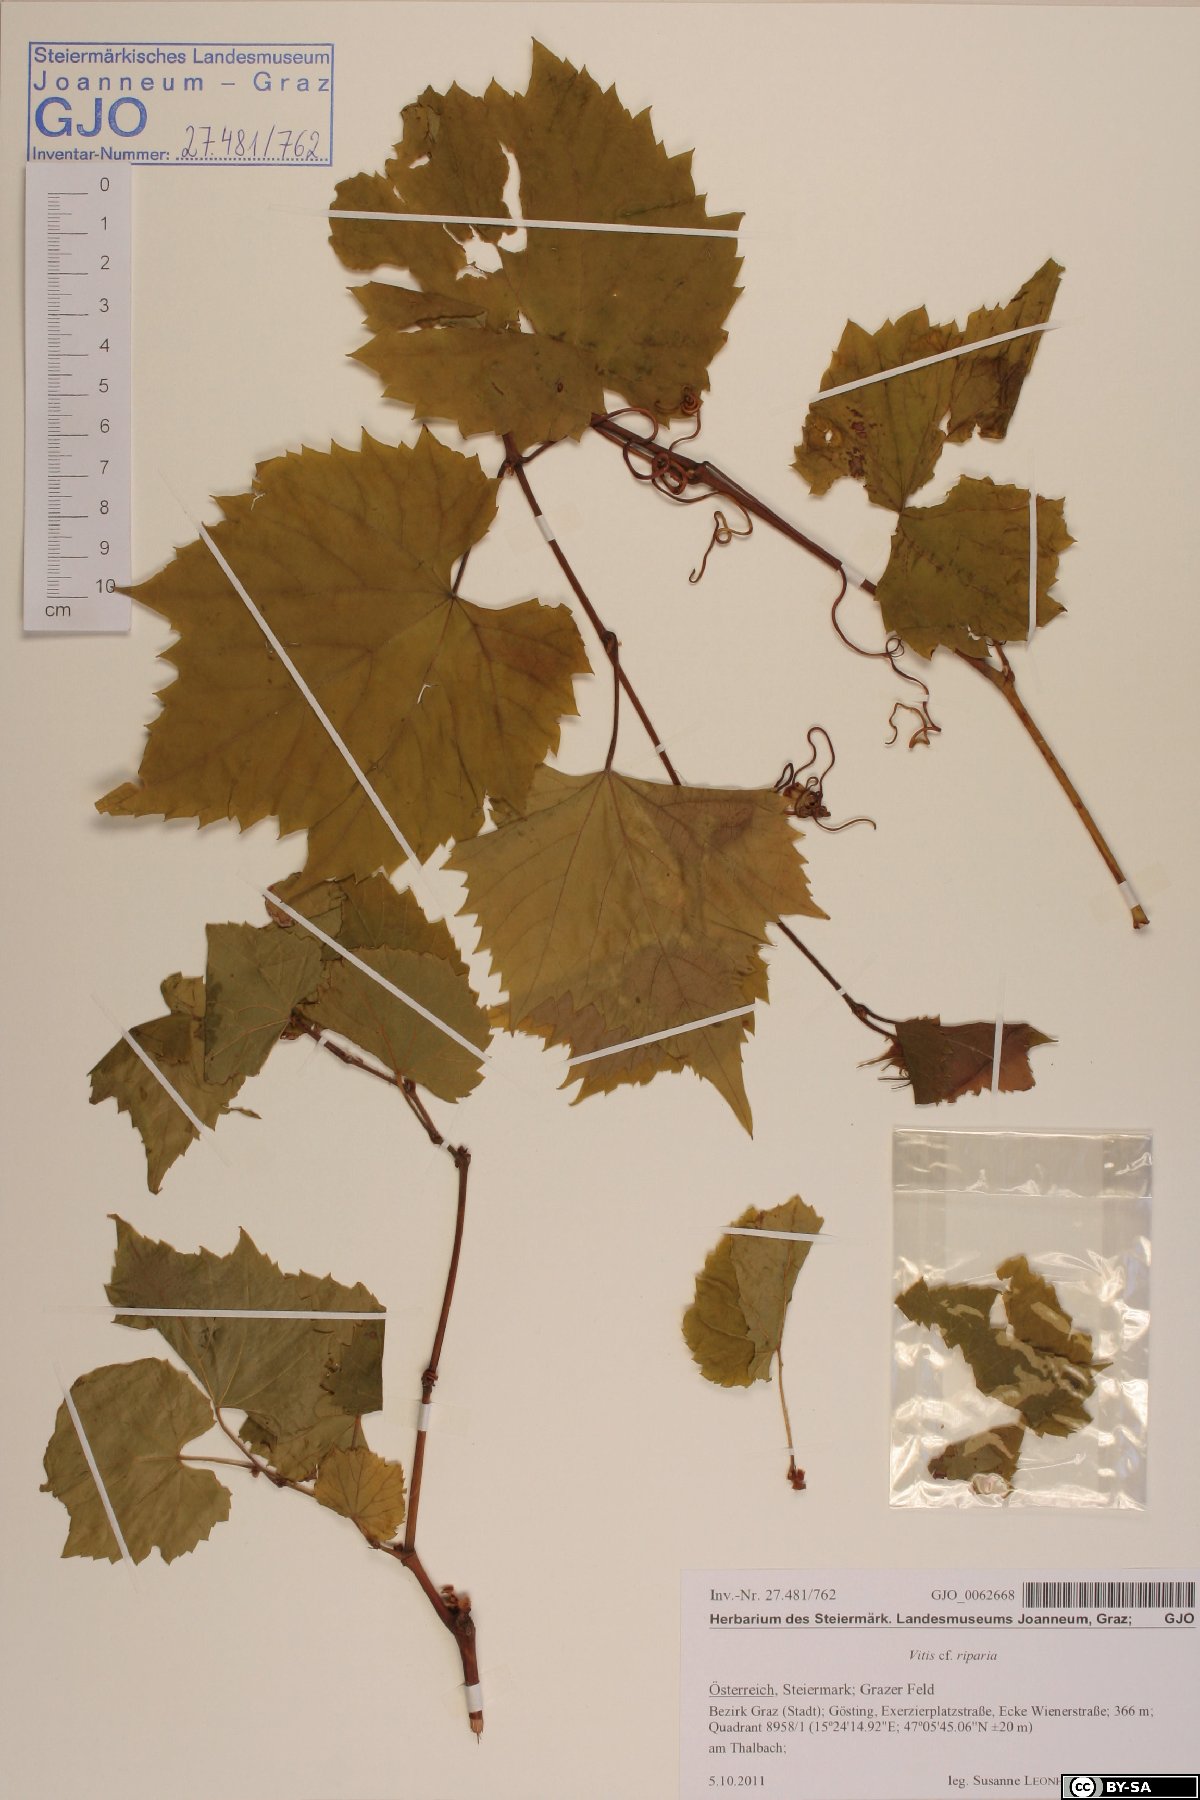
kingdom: Plantae
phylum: Tracheophyta
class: Magnoliopsida
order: Vitales
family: Vitaceae
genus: Vitis
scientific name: Vitis riparia
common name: Frost grape
